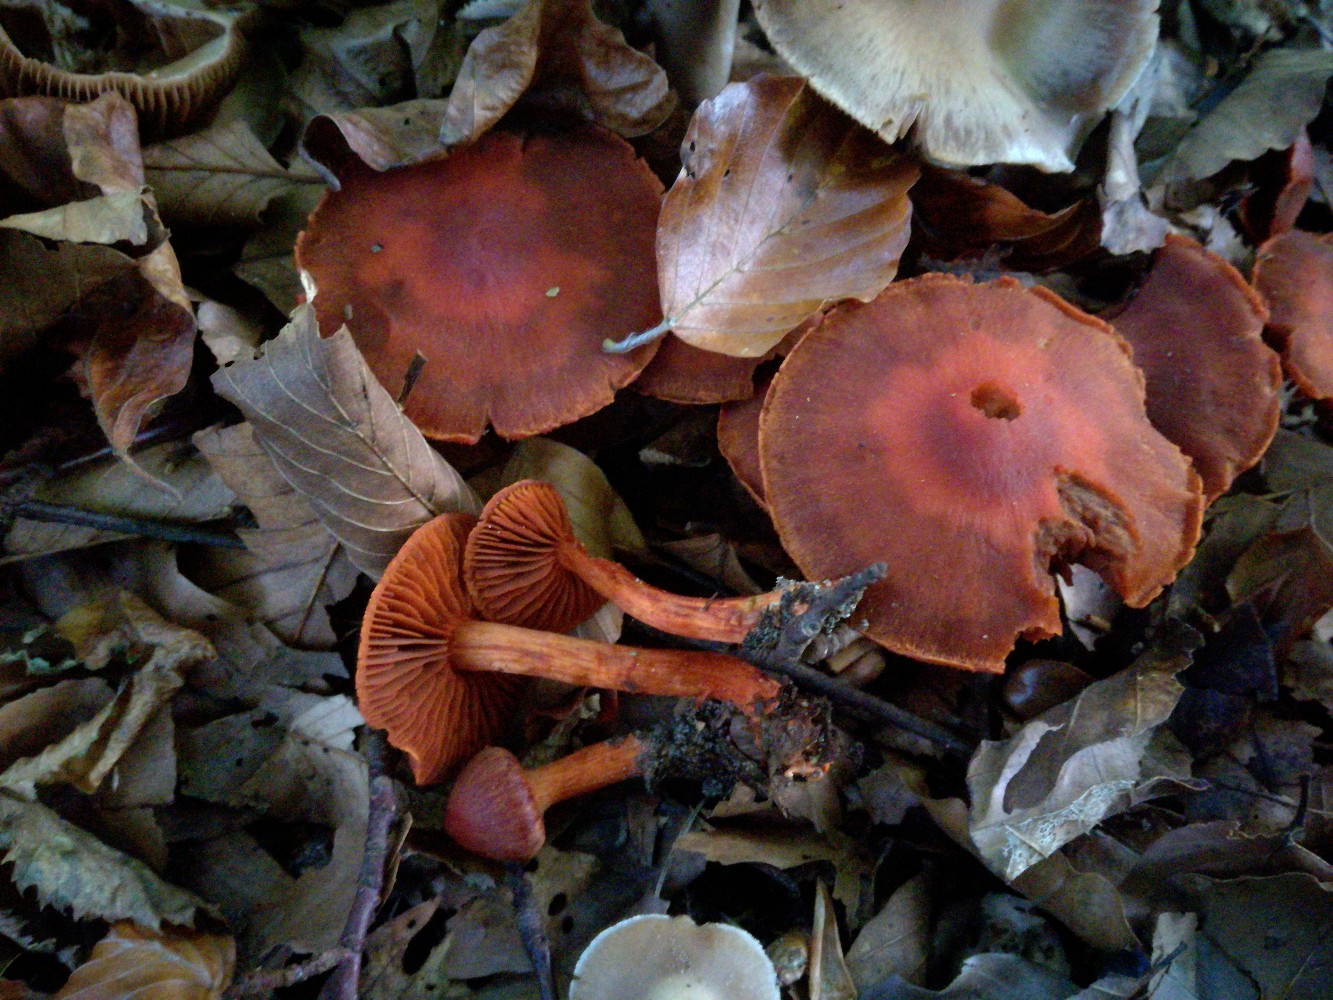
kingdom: Fungi
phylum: Basidiomycota
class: Agaricomycetes
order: Agaricales
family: Cortinariaceae
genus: Cortinarius
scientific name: Cortinarius cinnabarinus
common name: cinnober-slørhat
